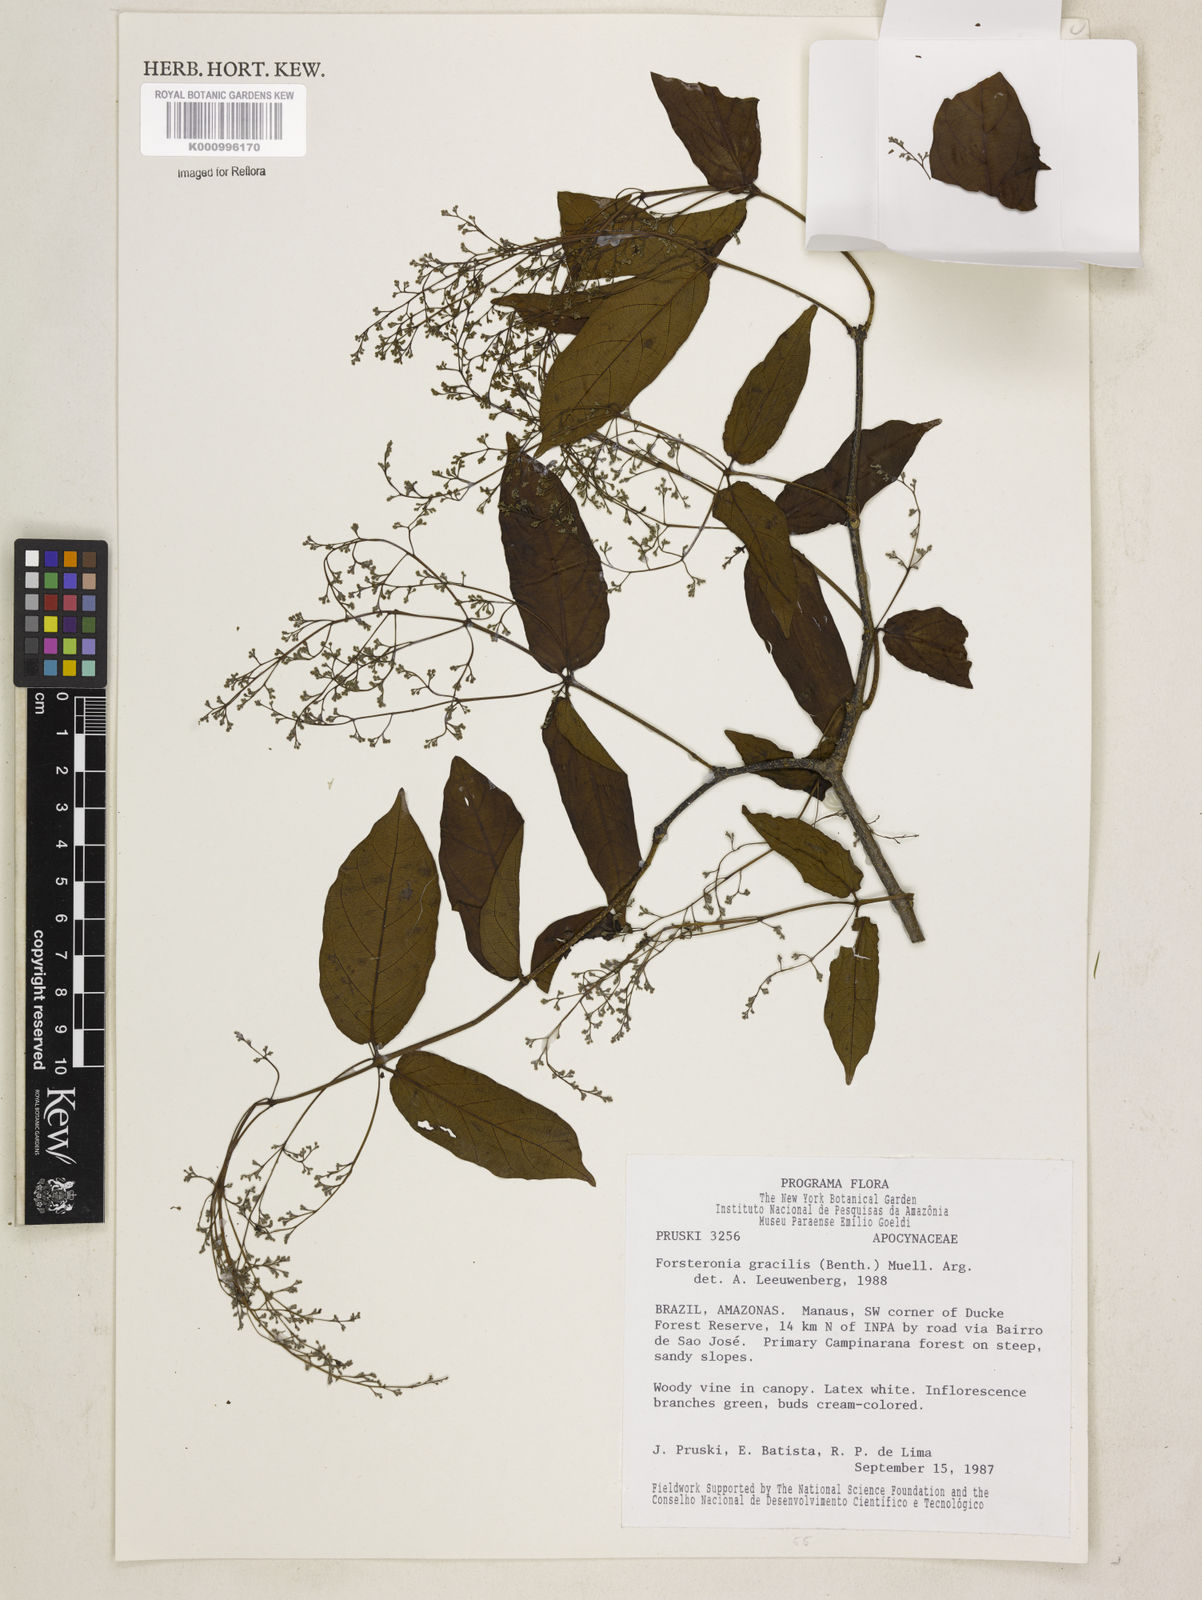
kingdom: Plantae
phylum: Tracheophyta
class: Magnoliopsida
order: Gentianales
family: Apocynaceae
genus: Forsteronia
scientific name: Forsteronia
